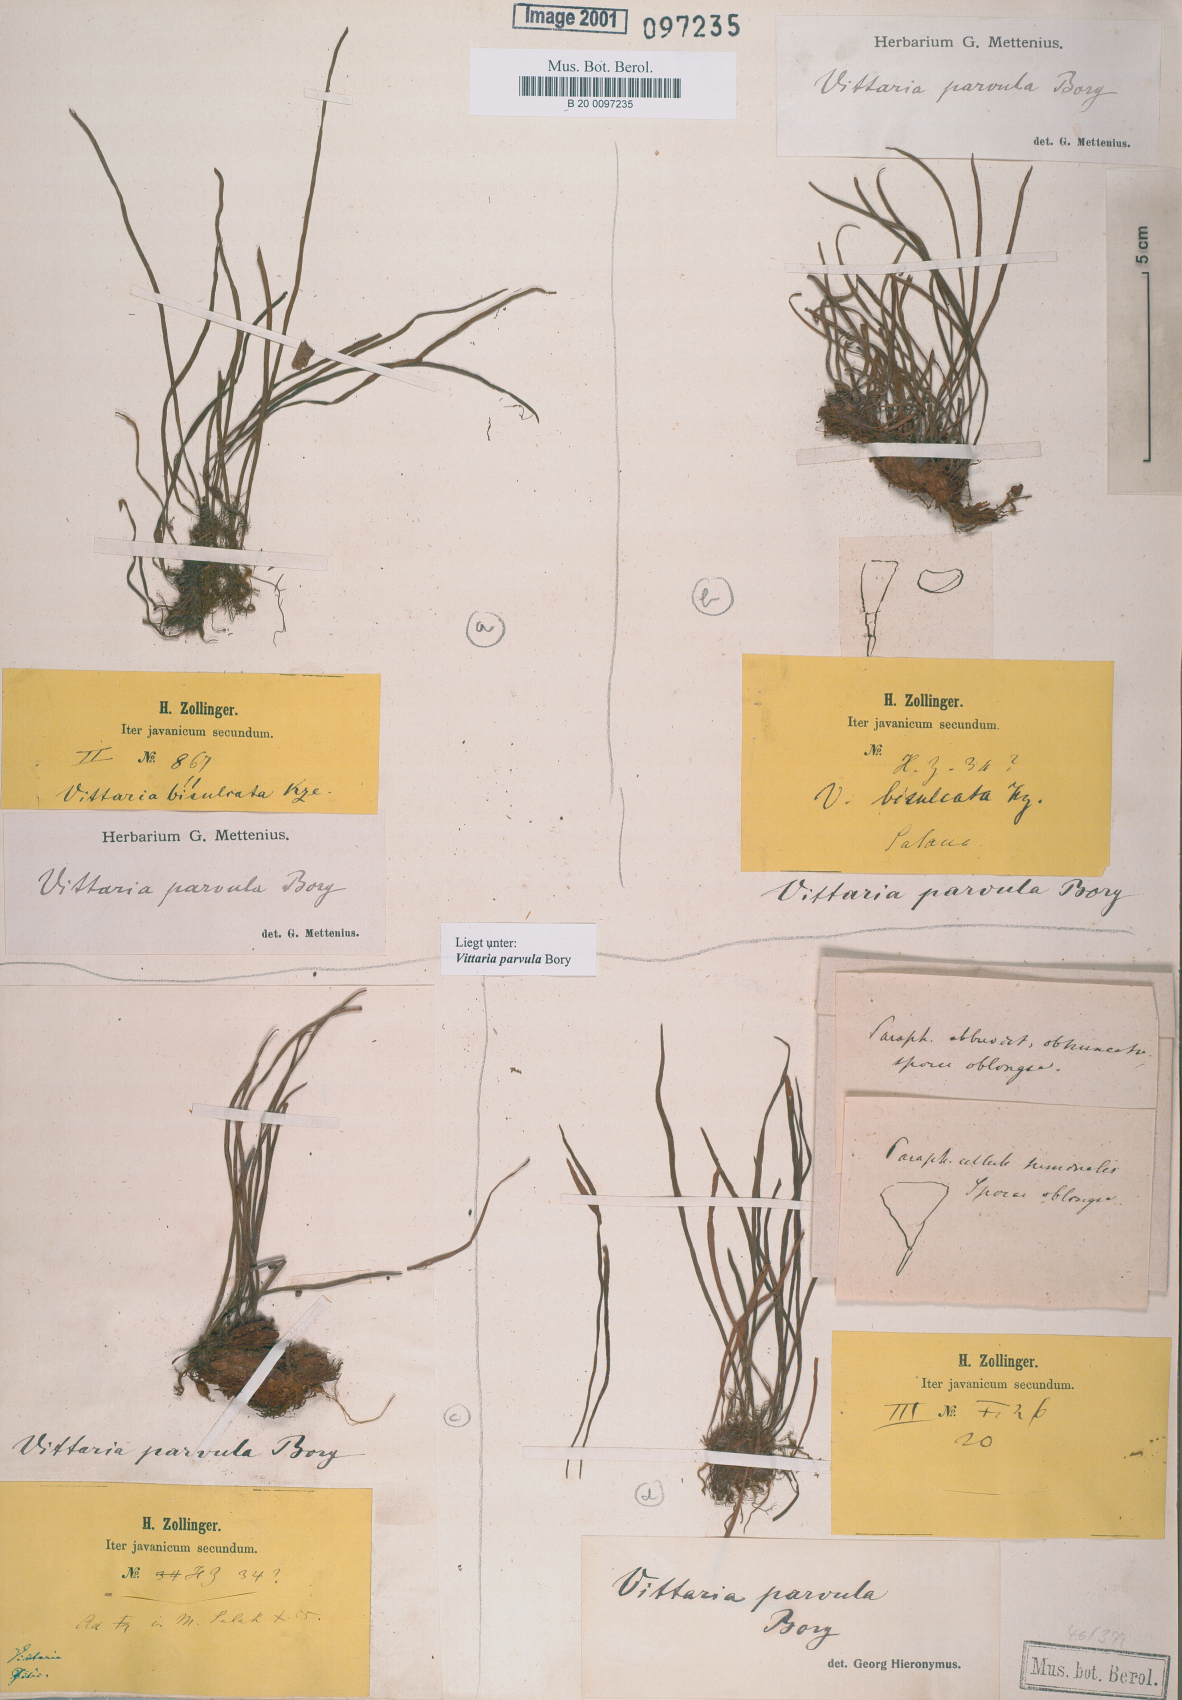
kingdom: Plantae
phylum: Tracheophyta
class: Polypodiopsida
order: Polypodiales
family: Pteridaceae
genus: Haplopteris
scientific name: Haplopteris elongata
